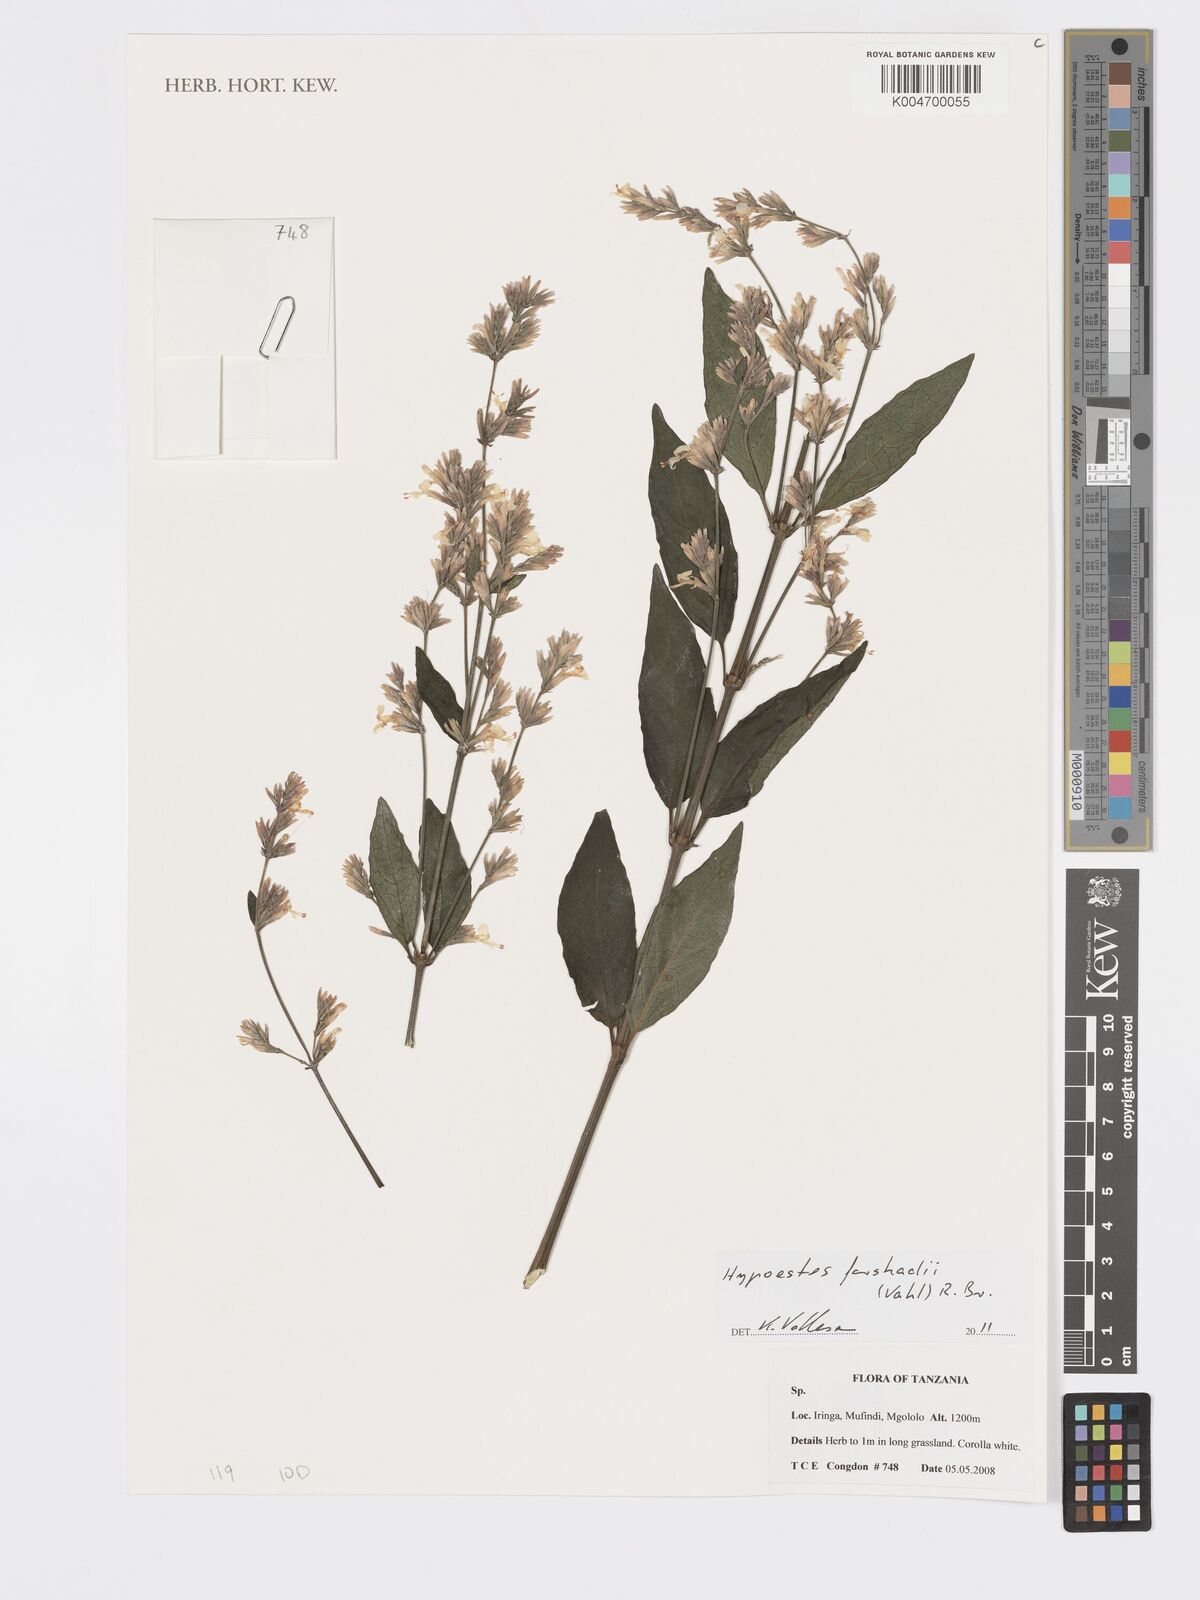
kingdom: Plantae
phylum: Tracheophyta
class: Magnoliopsida
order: Lamiales
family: Acanthaceae
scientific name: Acanthaceae
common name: Acanthaceae
